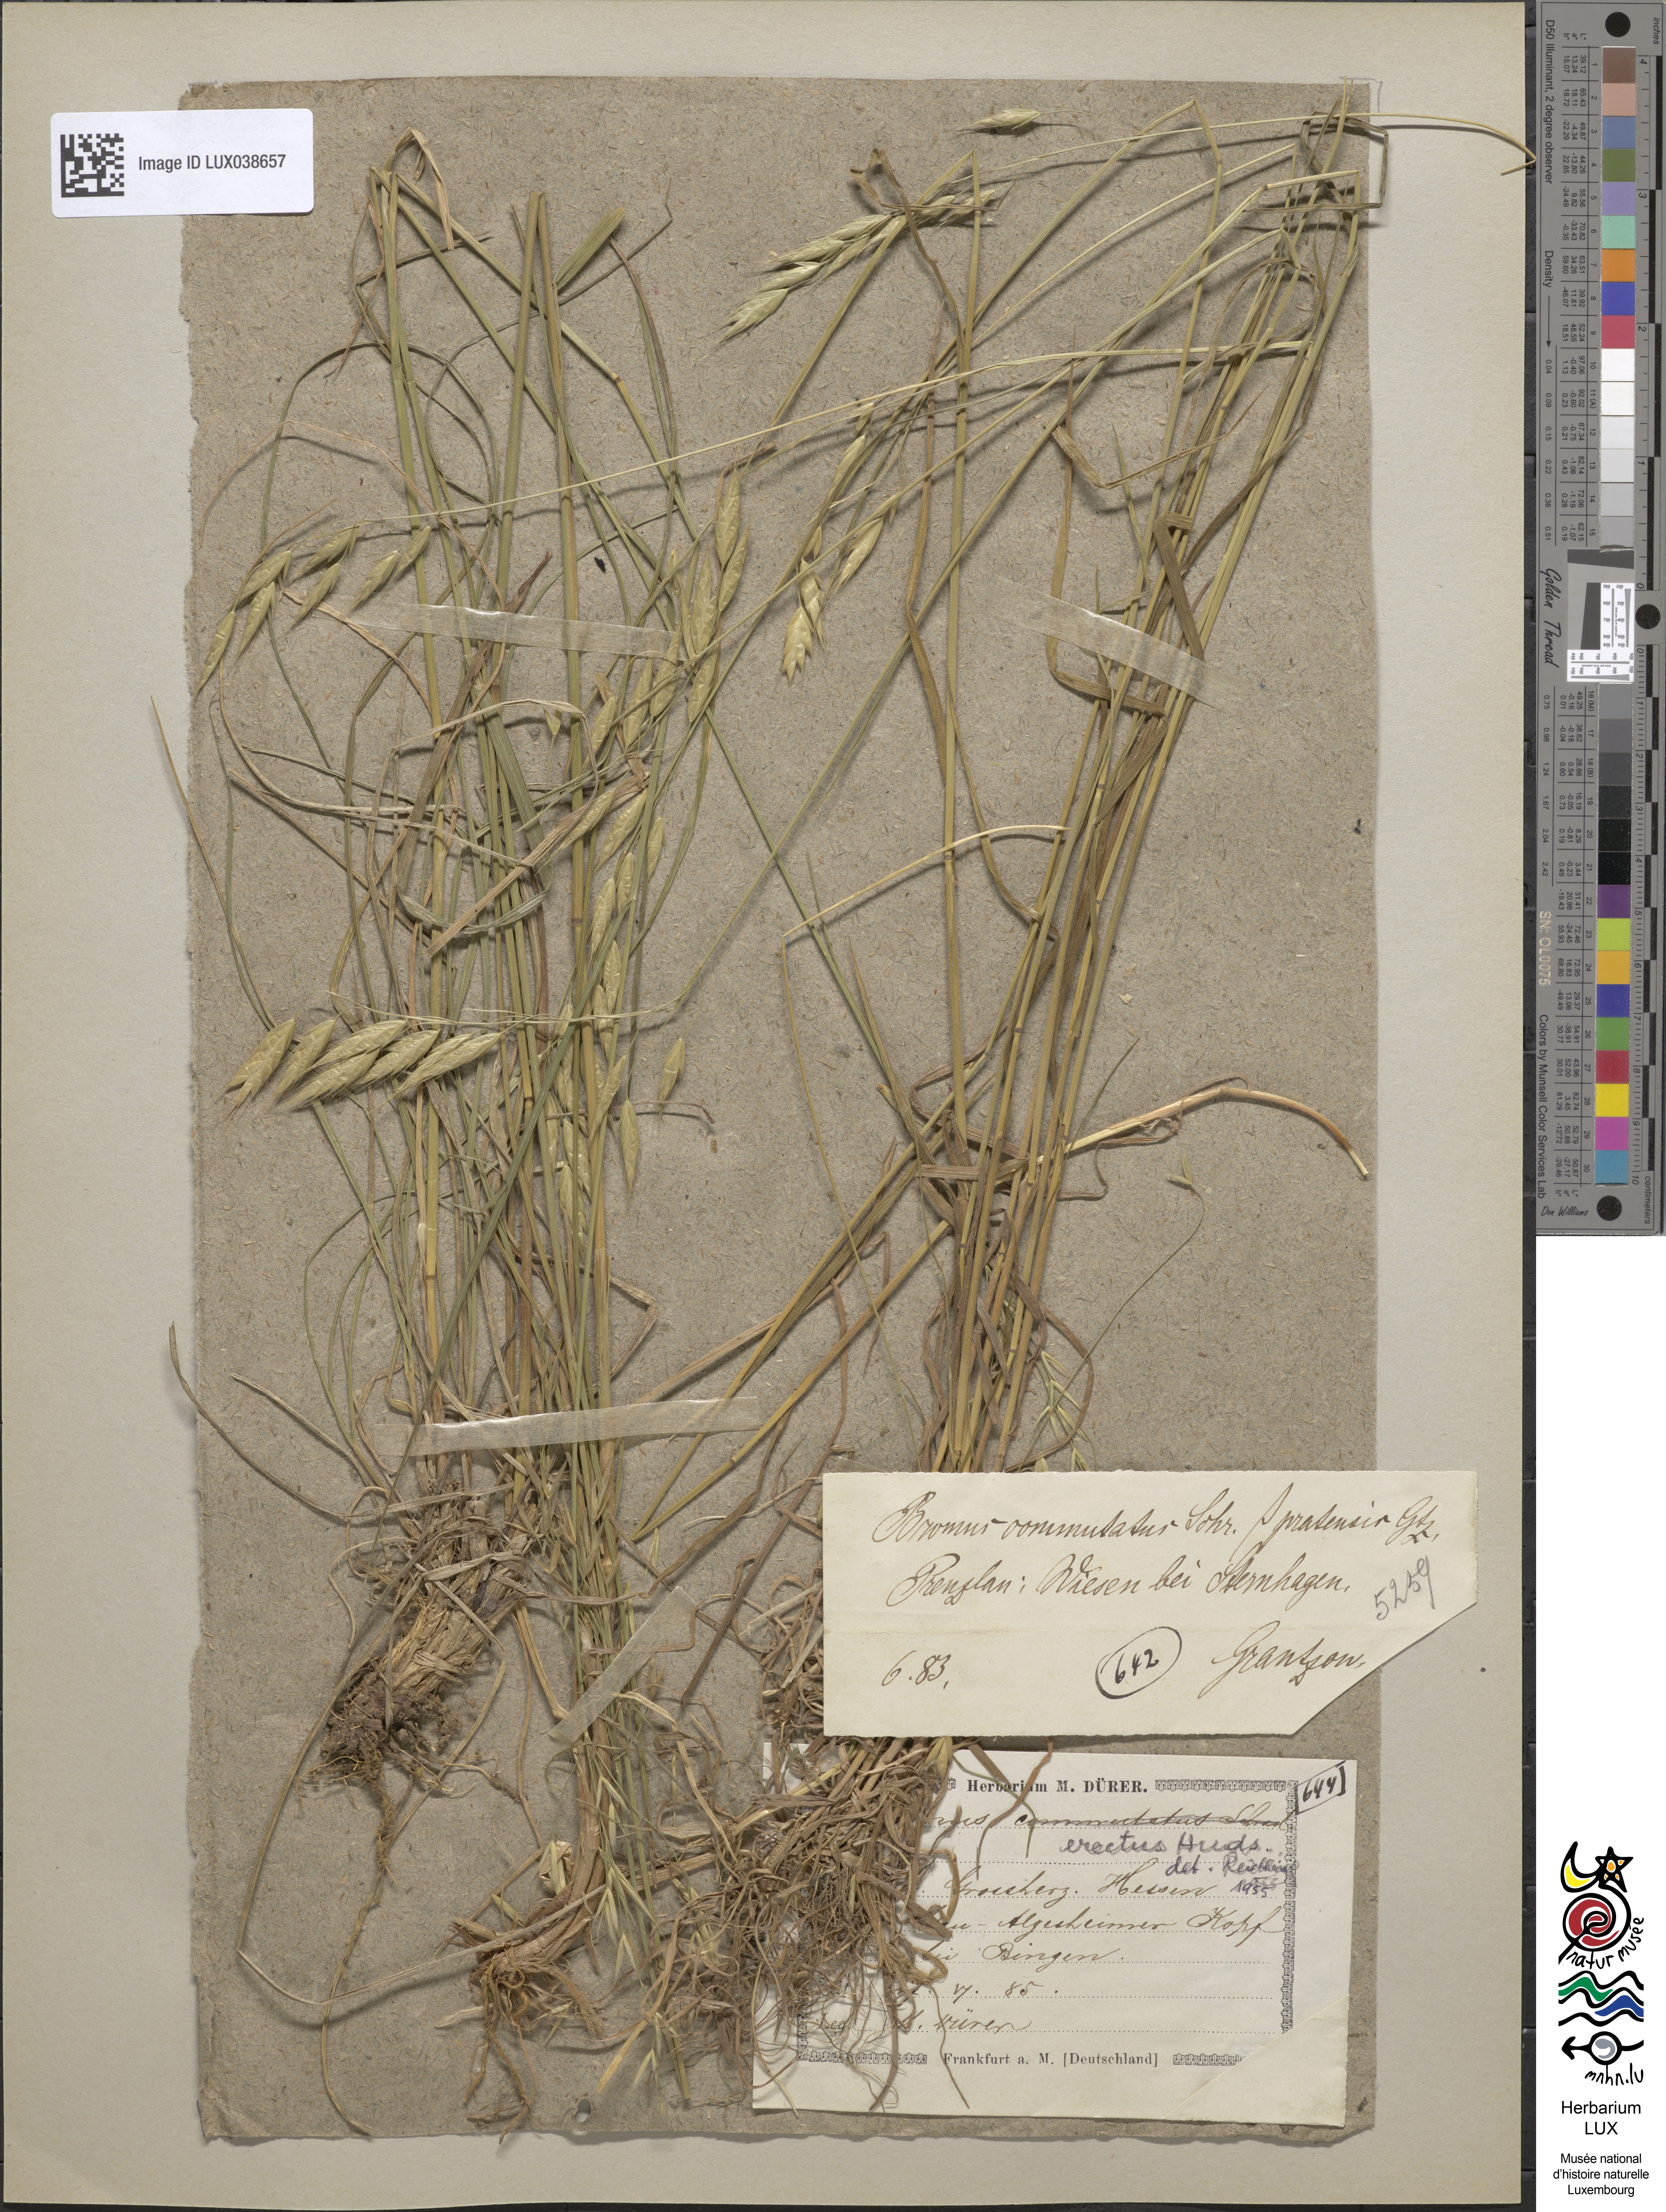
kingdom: Plantae
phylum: Tracheophyta
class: Liliopsida
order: Poales
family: Poaceae
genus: Bromus
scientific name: Bromus erectus
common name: Erect brome
